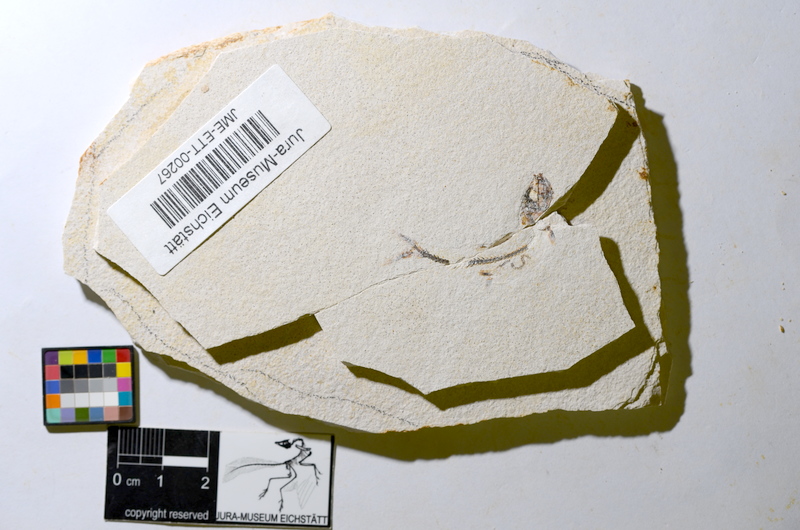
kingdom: Animalia
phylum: Chordata
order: Salmoniformes
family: Orthogonikleithridae
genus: Orthogonikleithrus
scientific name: Orthogonikleithrus hoelli
